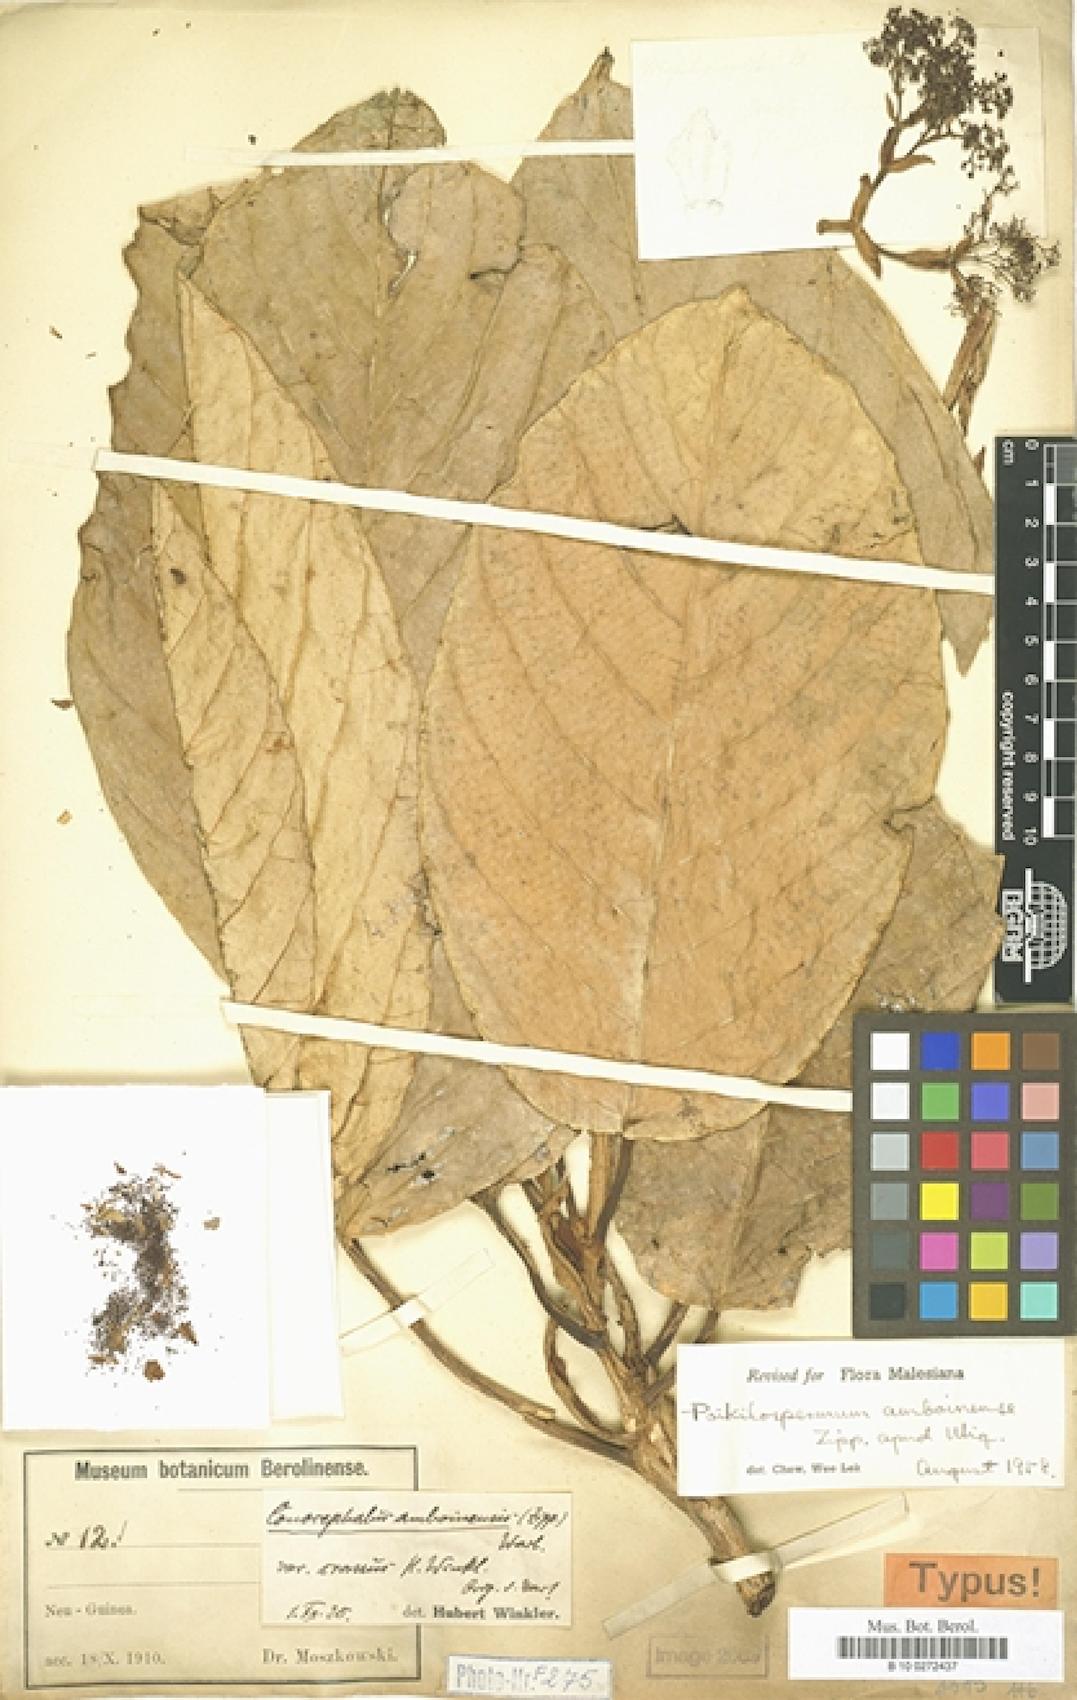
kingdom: Plantae
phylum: Tracheophyta
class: Magnoliopsida
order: Rosales
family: Urticaceae
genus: Poikilospermum
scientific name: Poikilospermum amboinense
